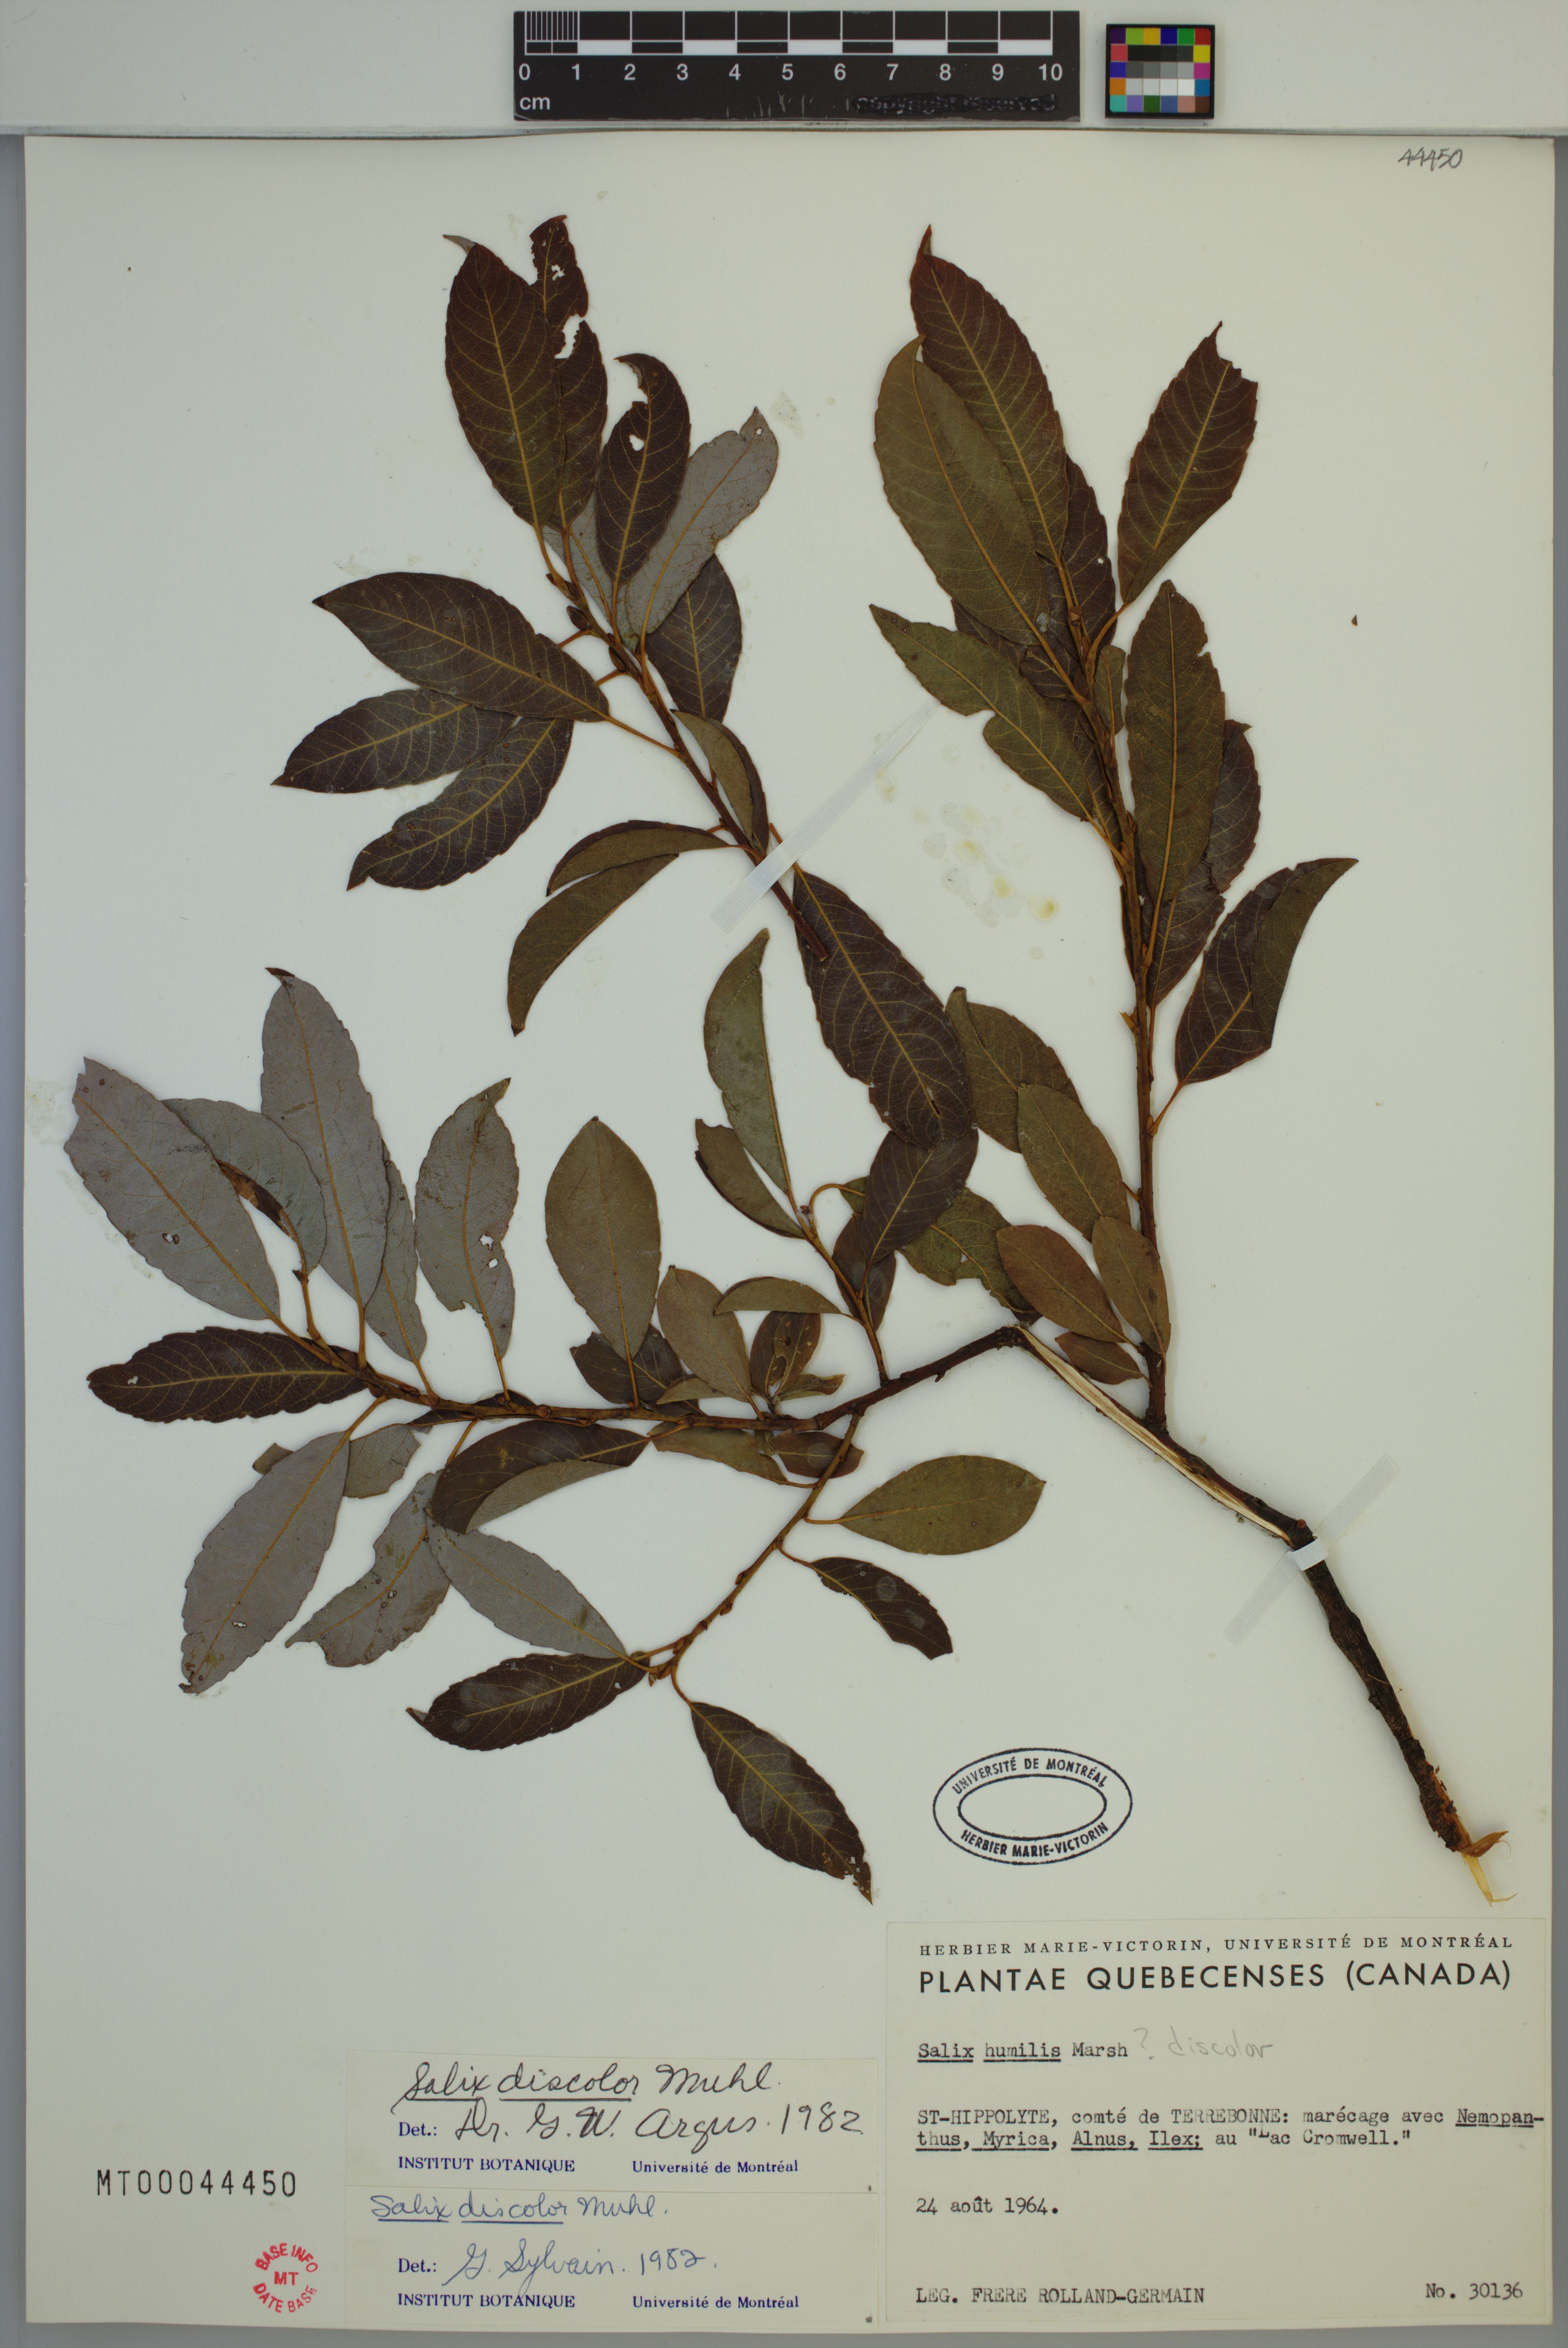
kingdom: Plantae
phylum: Tracheophyta
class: Magnoliopsida
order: Malpighiales
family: Salicaceae
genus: Salix
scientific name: Salix discolor
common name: Glaucous willow
